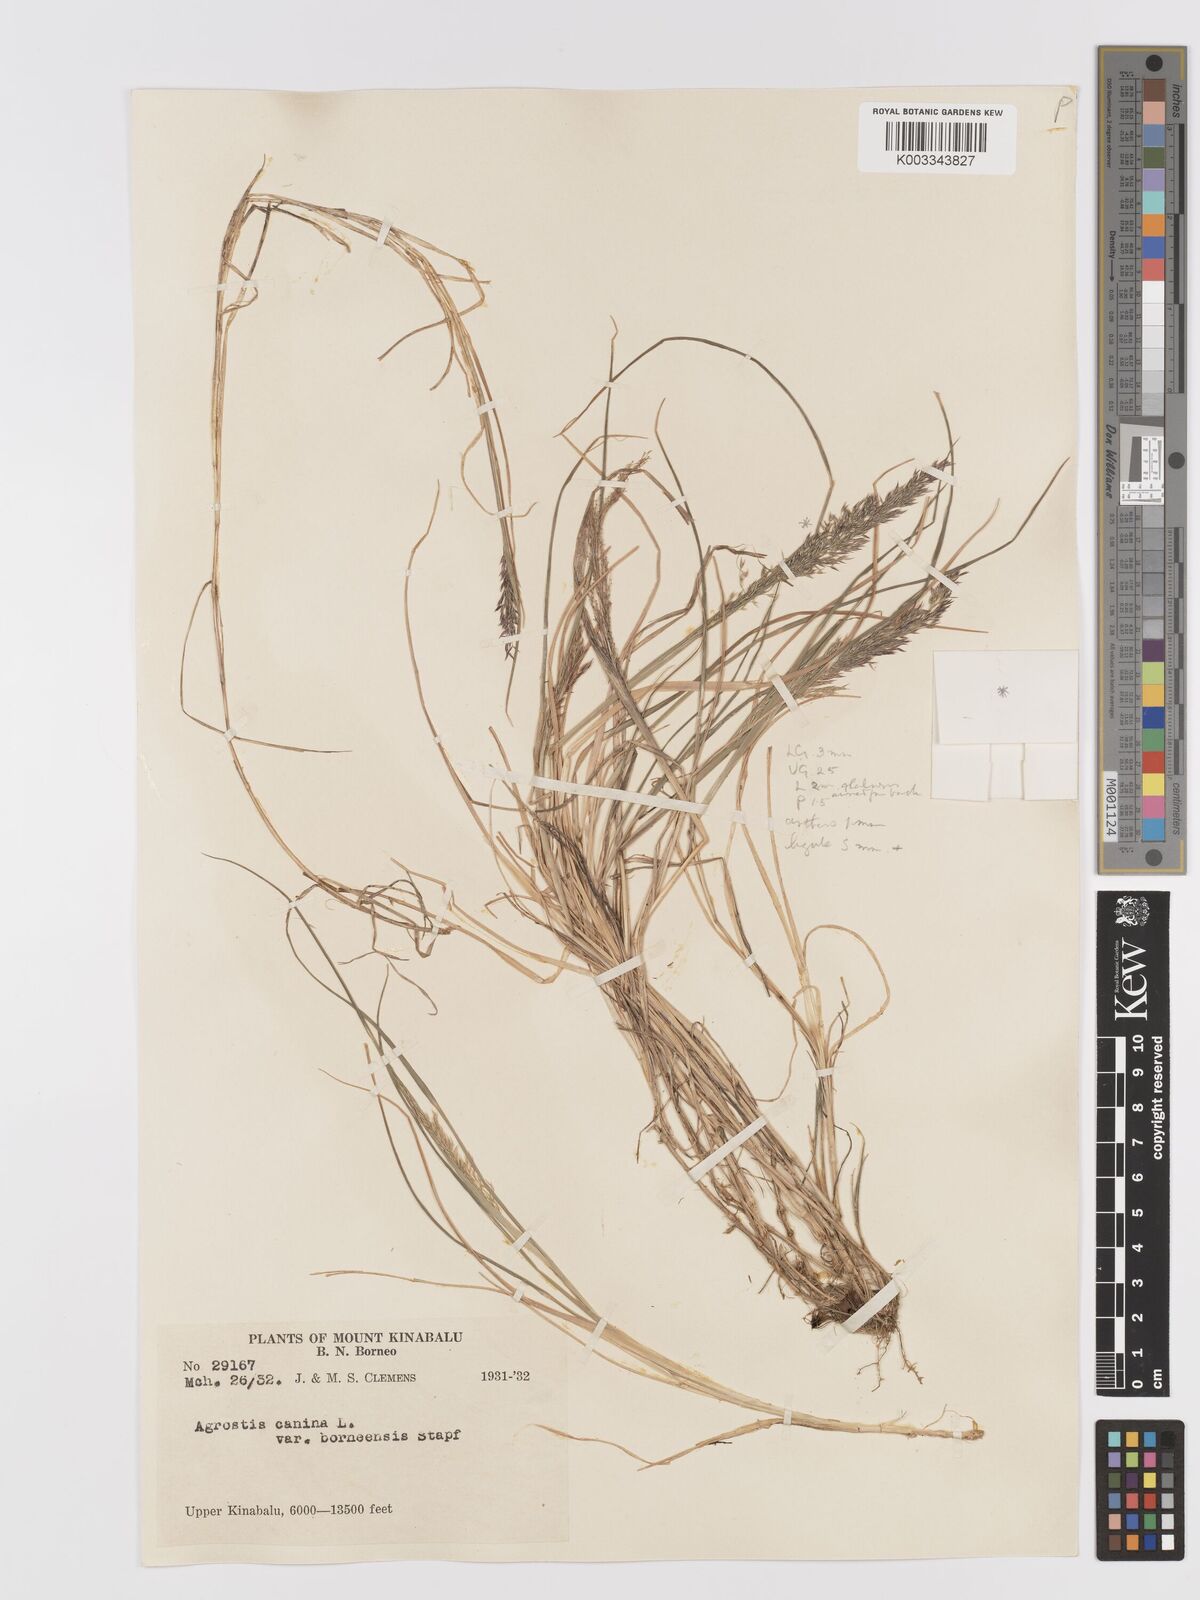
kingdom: Plantae
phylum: Tracheophyta
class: Liliopsida
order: Poales
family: Poaceae
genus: Agrostis
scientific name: Agrostis infirma
